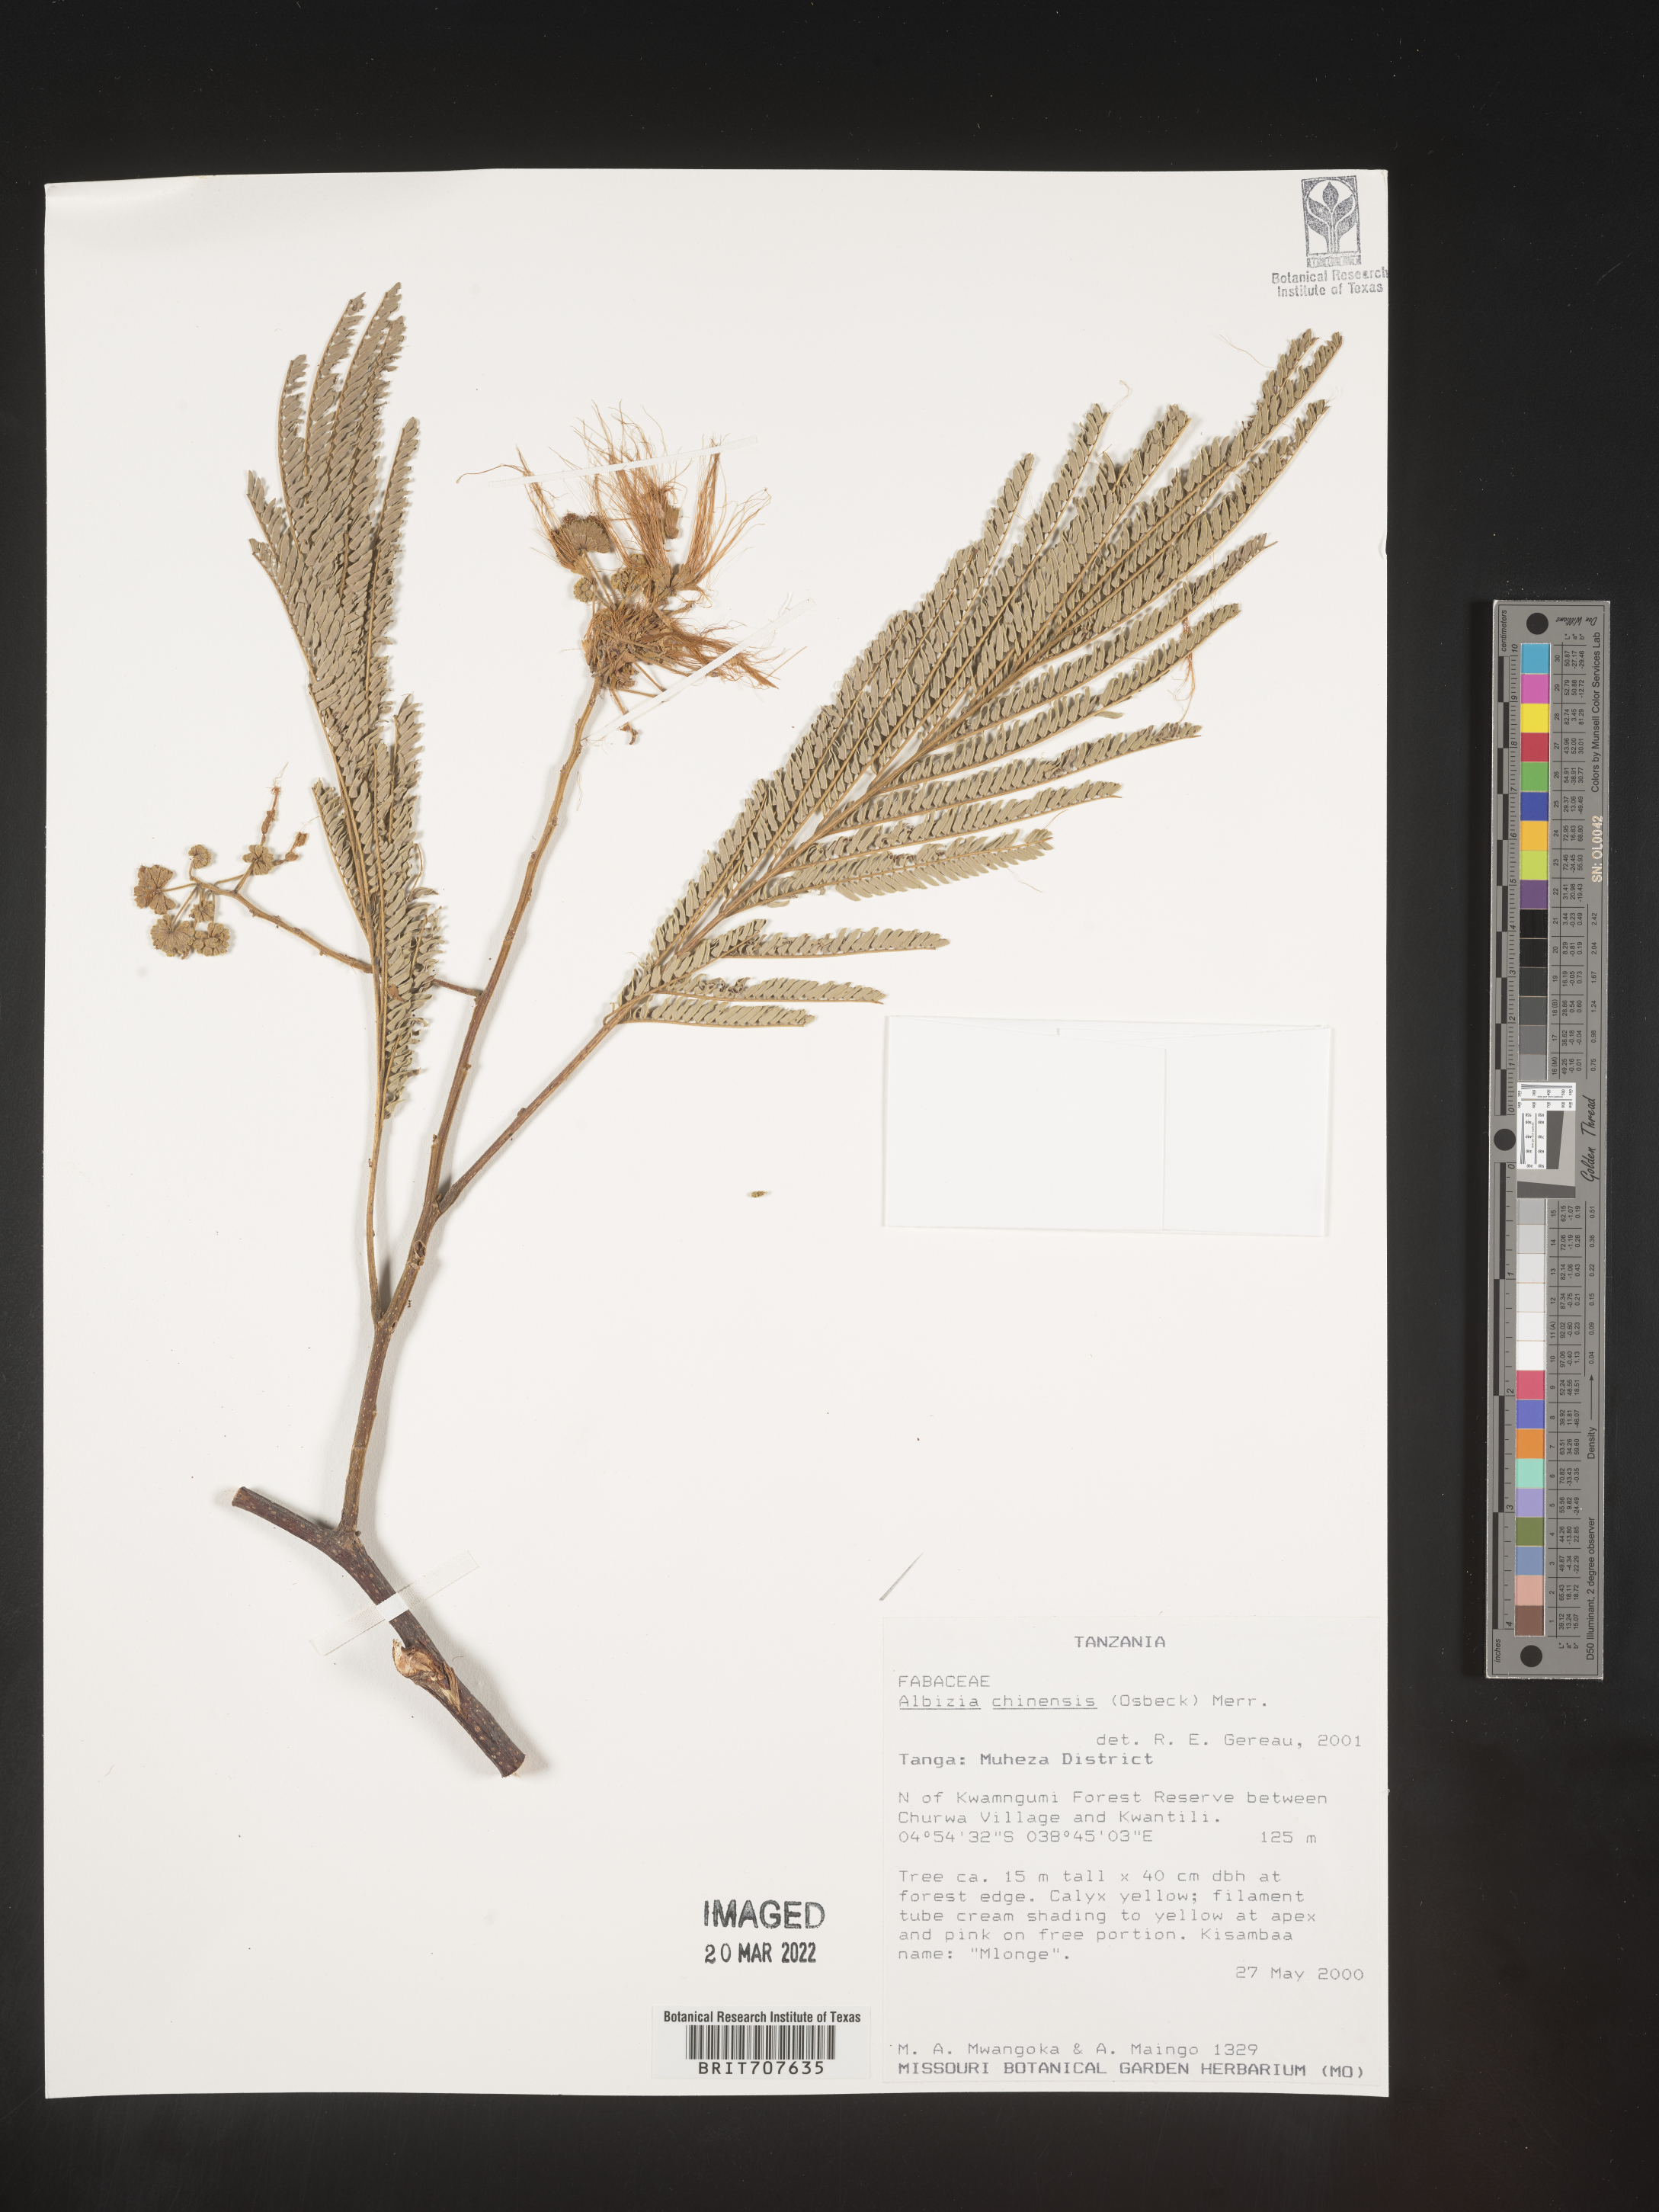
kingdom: Plantae
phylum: Tracheophyta
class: Magnoliopsida
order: Fabales
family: Fabaceae
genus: Albizia
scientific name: Albizia
